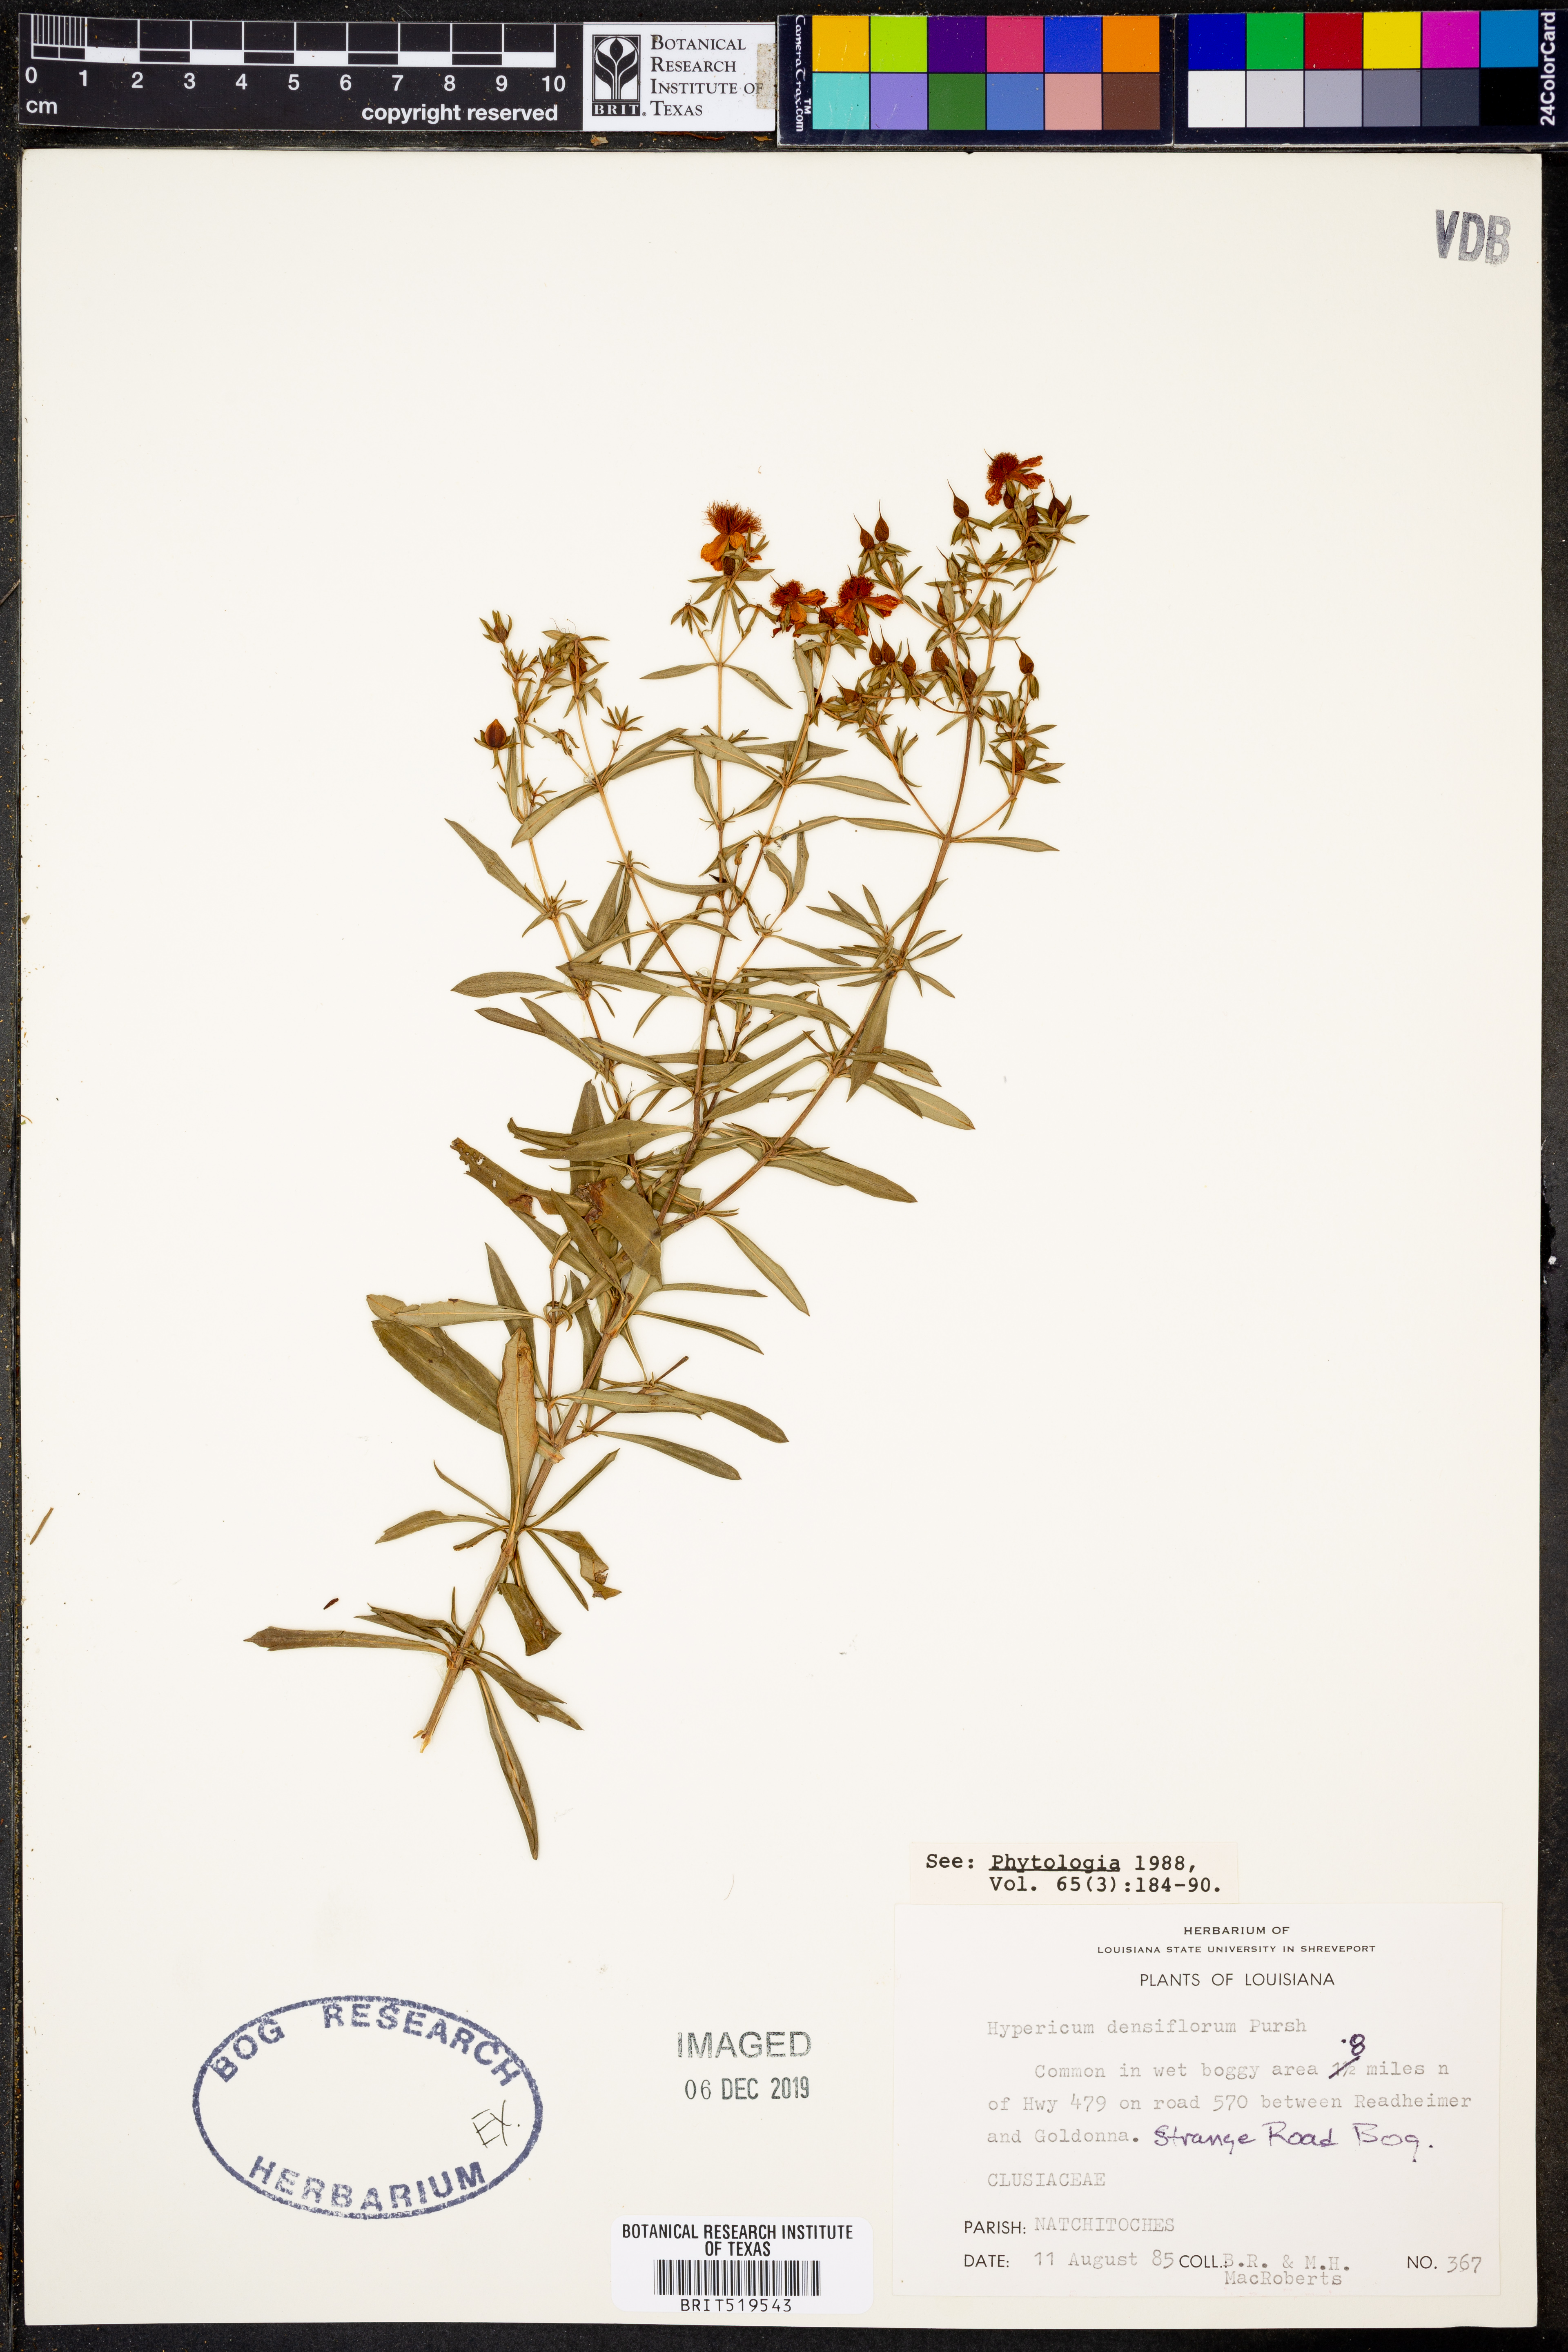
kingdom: Plantae
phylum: Tracheophyta
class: Magnoliopsida
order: Malpighiales
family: Hypericaceae
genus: Hypericum
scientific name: Hypericum densiflorum
